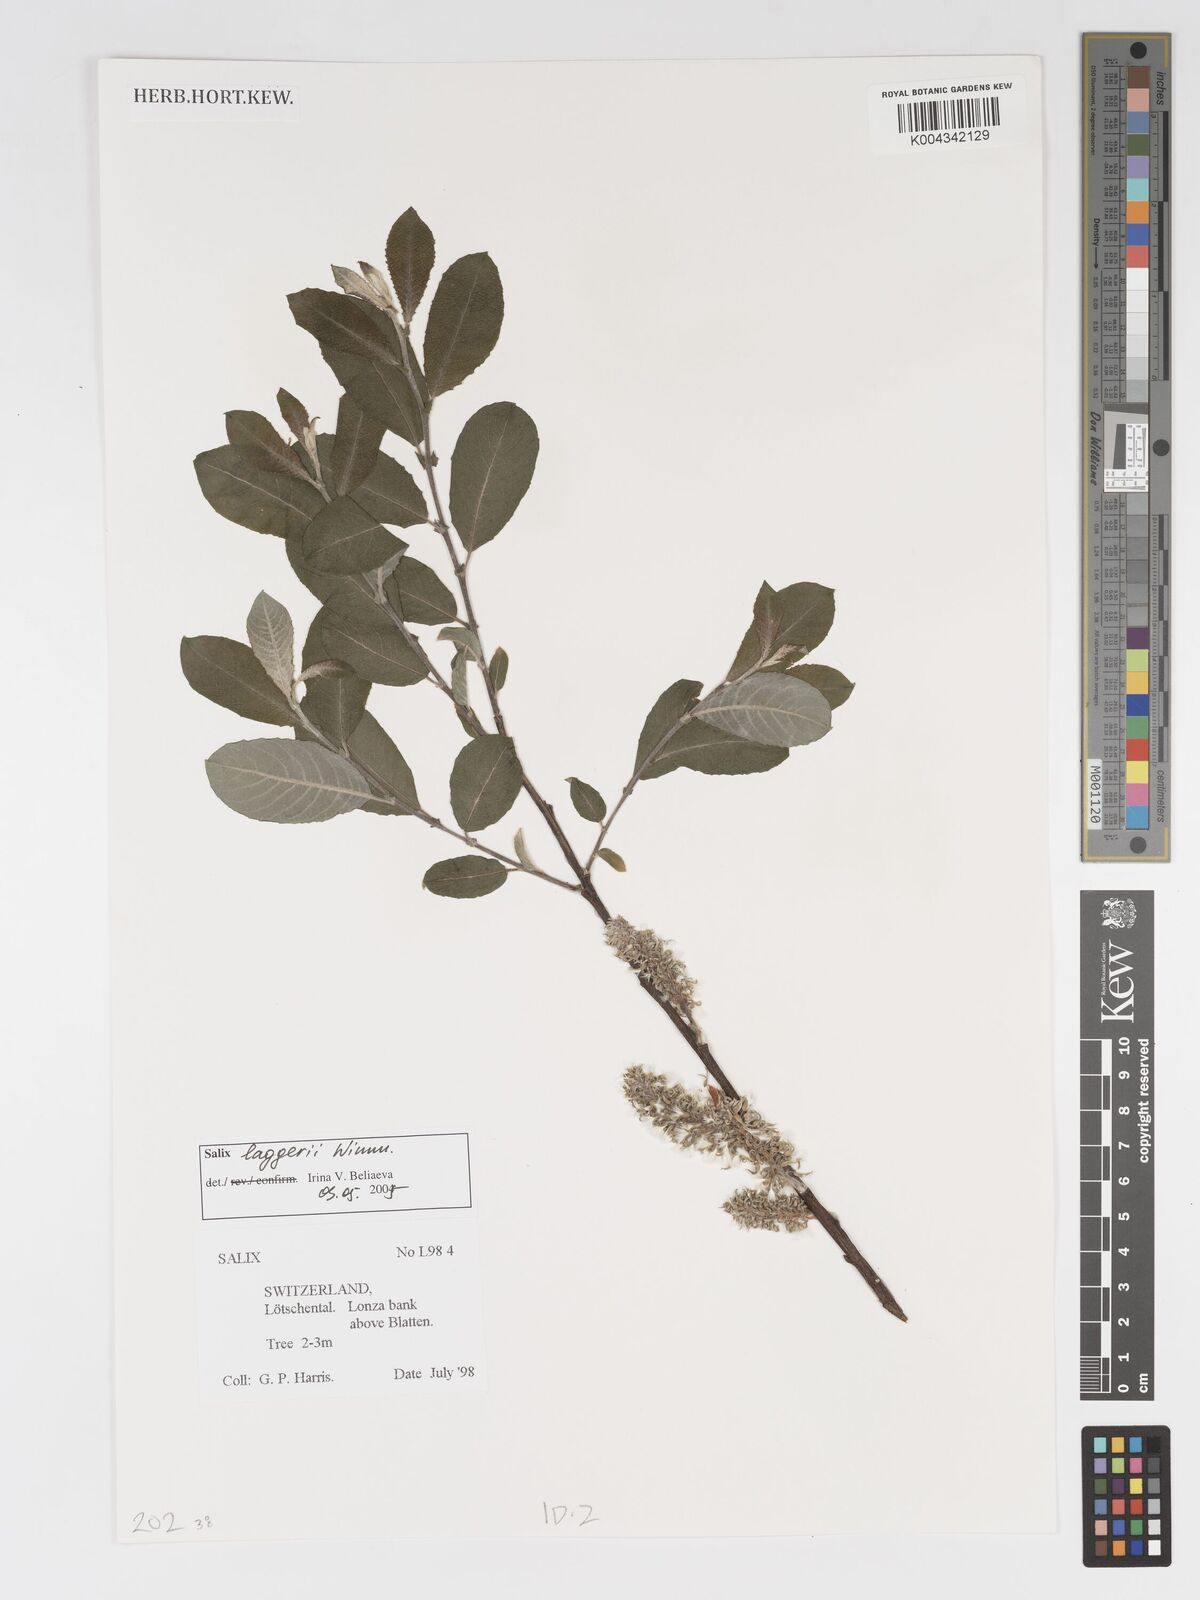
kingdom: Plantae
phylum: Tracheophyta
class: Magnoliopsida
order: Malpighiales
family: Salicaceae
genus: Salix
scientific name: Salix laggeri
